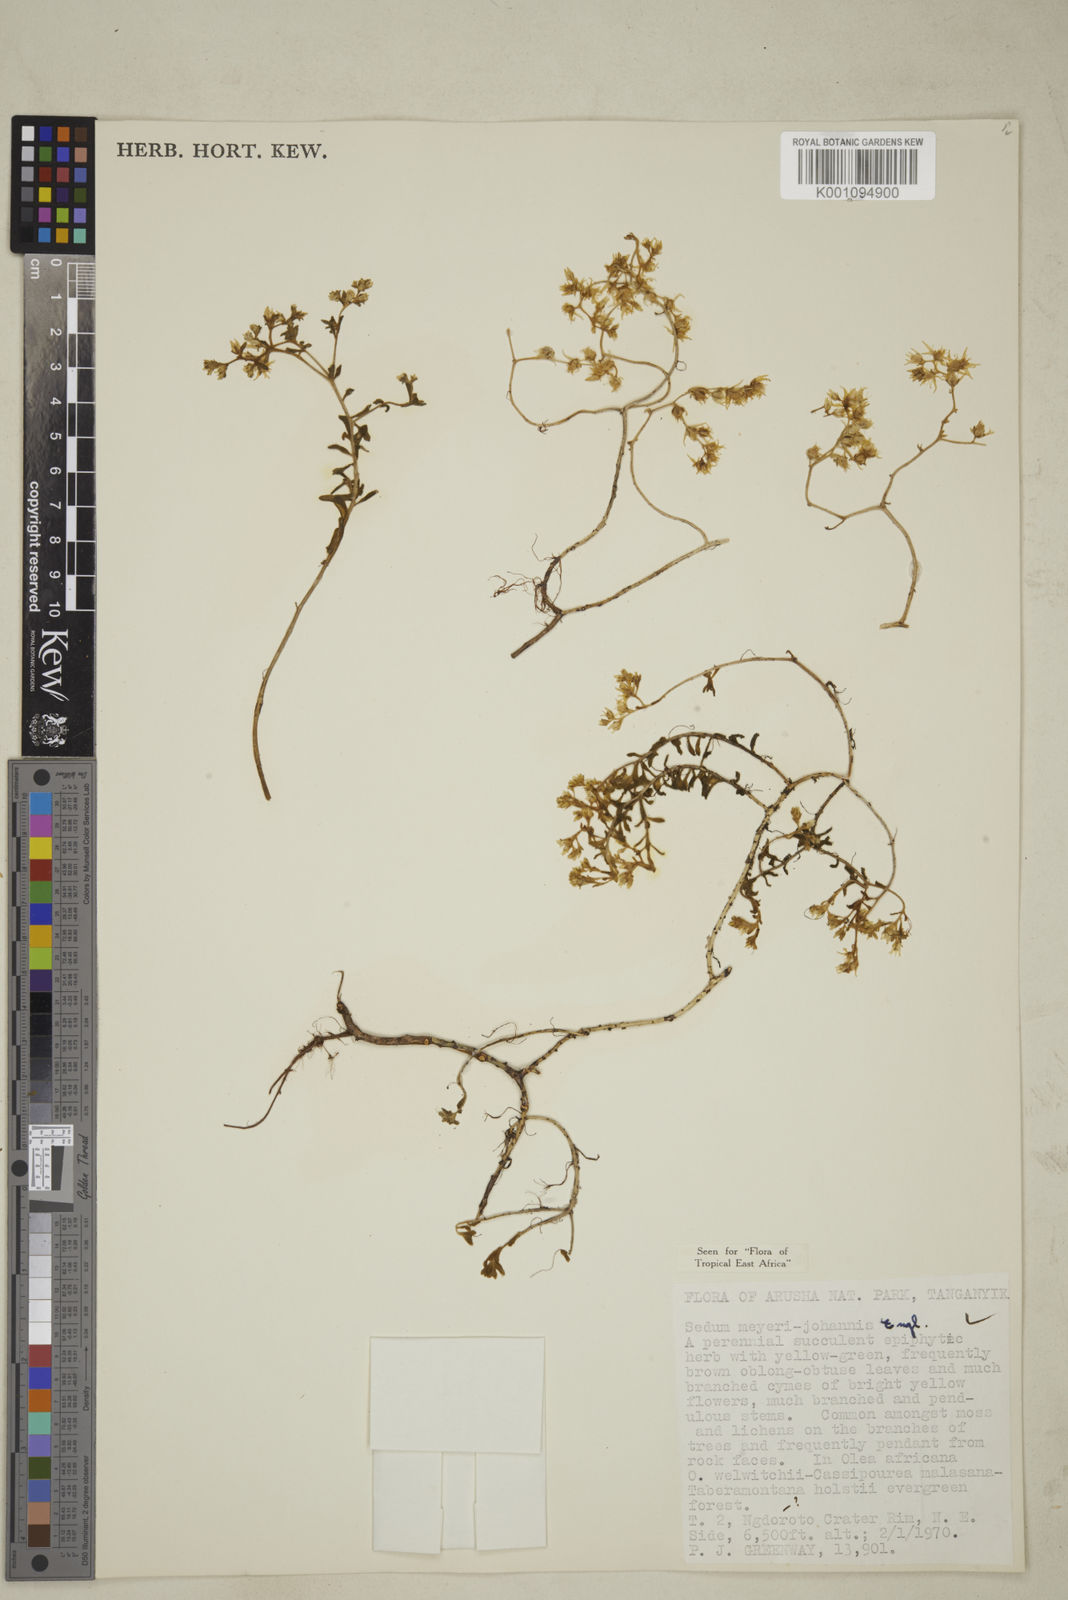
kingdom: Plantae
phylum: Tracheophyta
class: Magnoliopsida
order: Saxifragales
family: Crassulaceae
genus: Sedum
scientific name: Sedum meyeri-johannis
